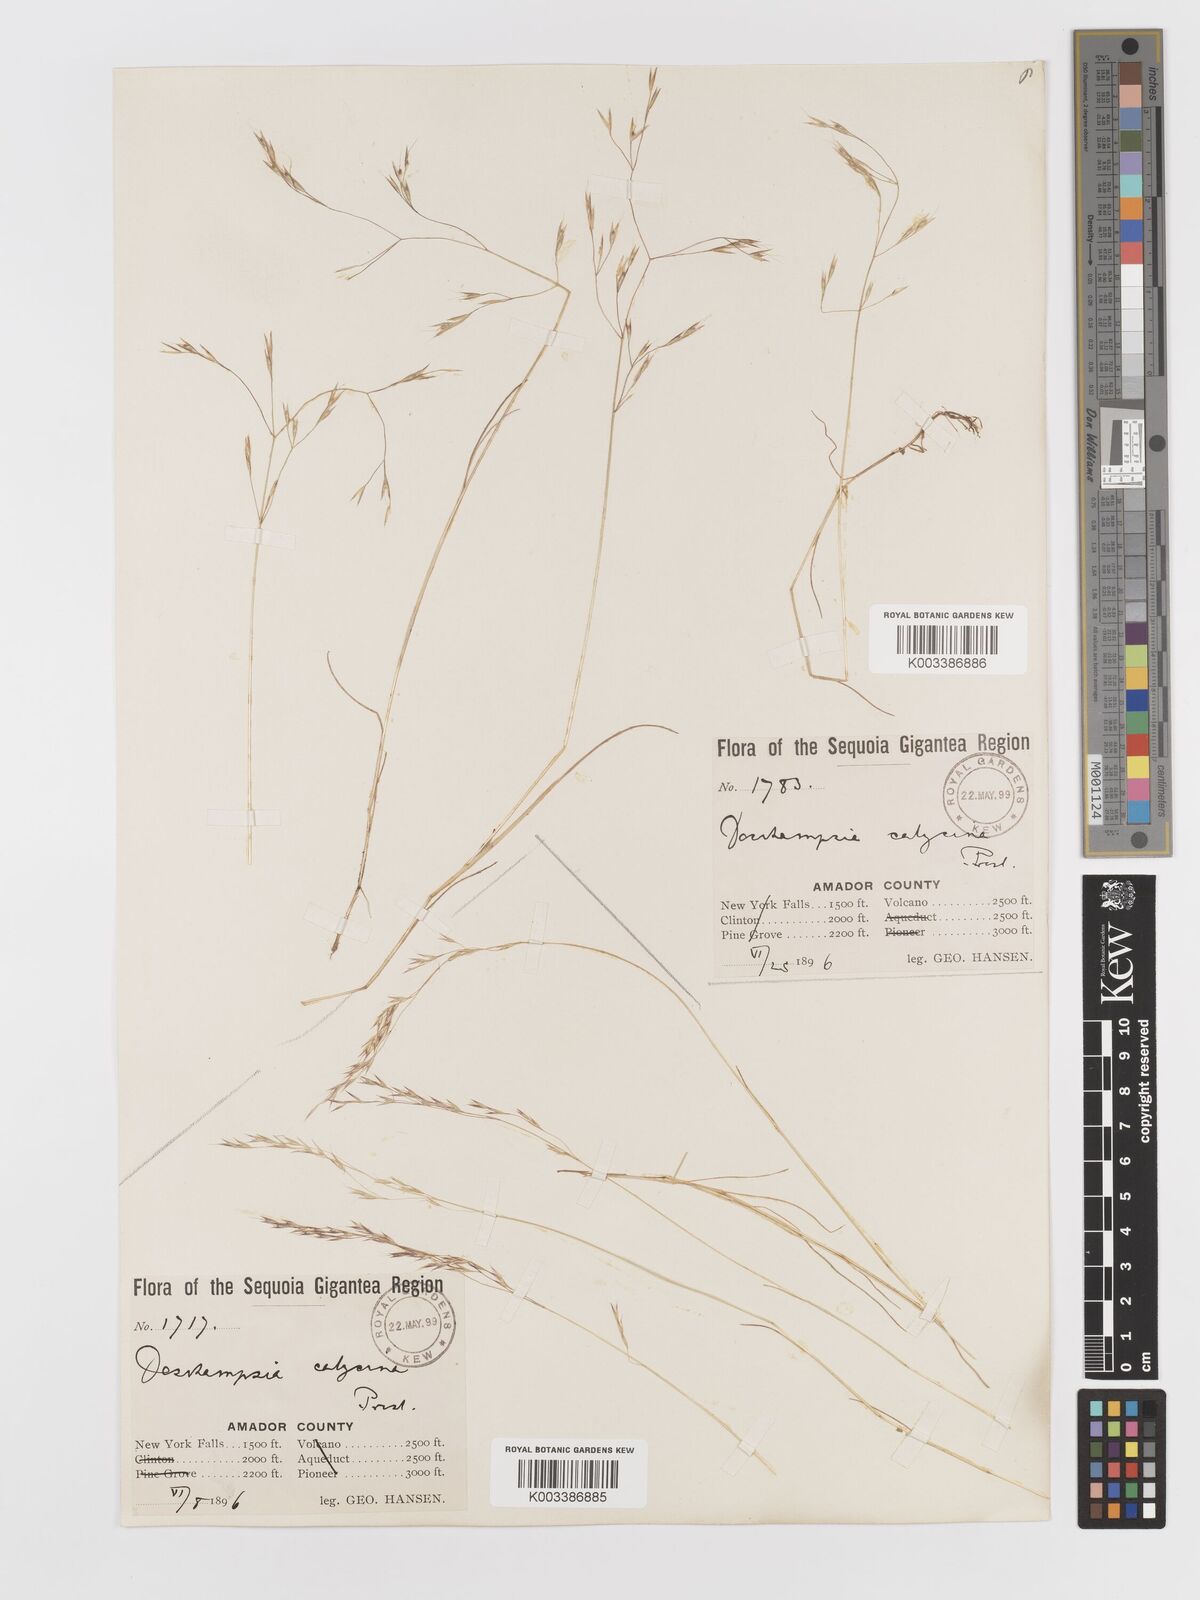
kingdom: Plantae
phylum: Tracheophyta
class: Liliopsida
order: Poales
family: Poaceae
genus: Deschampsia
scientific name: Deschampsia danthonioides
